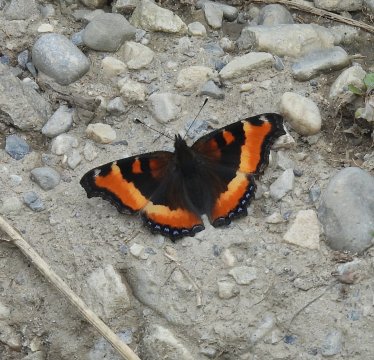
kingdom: Animalia
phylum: Arthropoda
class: Insecta
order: Lepidoptera
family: Nymphalidae
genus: Aglais
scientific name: Aglais milberti
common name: Milbert's Tortoiseshell
